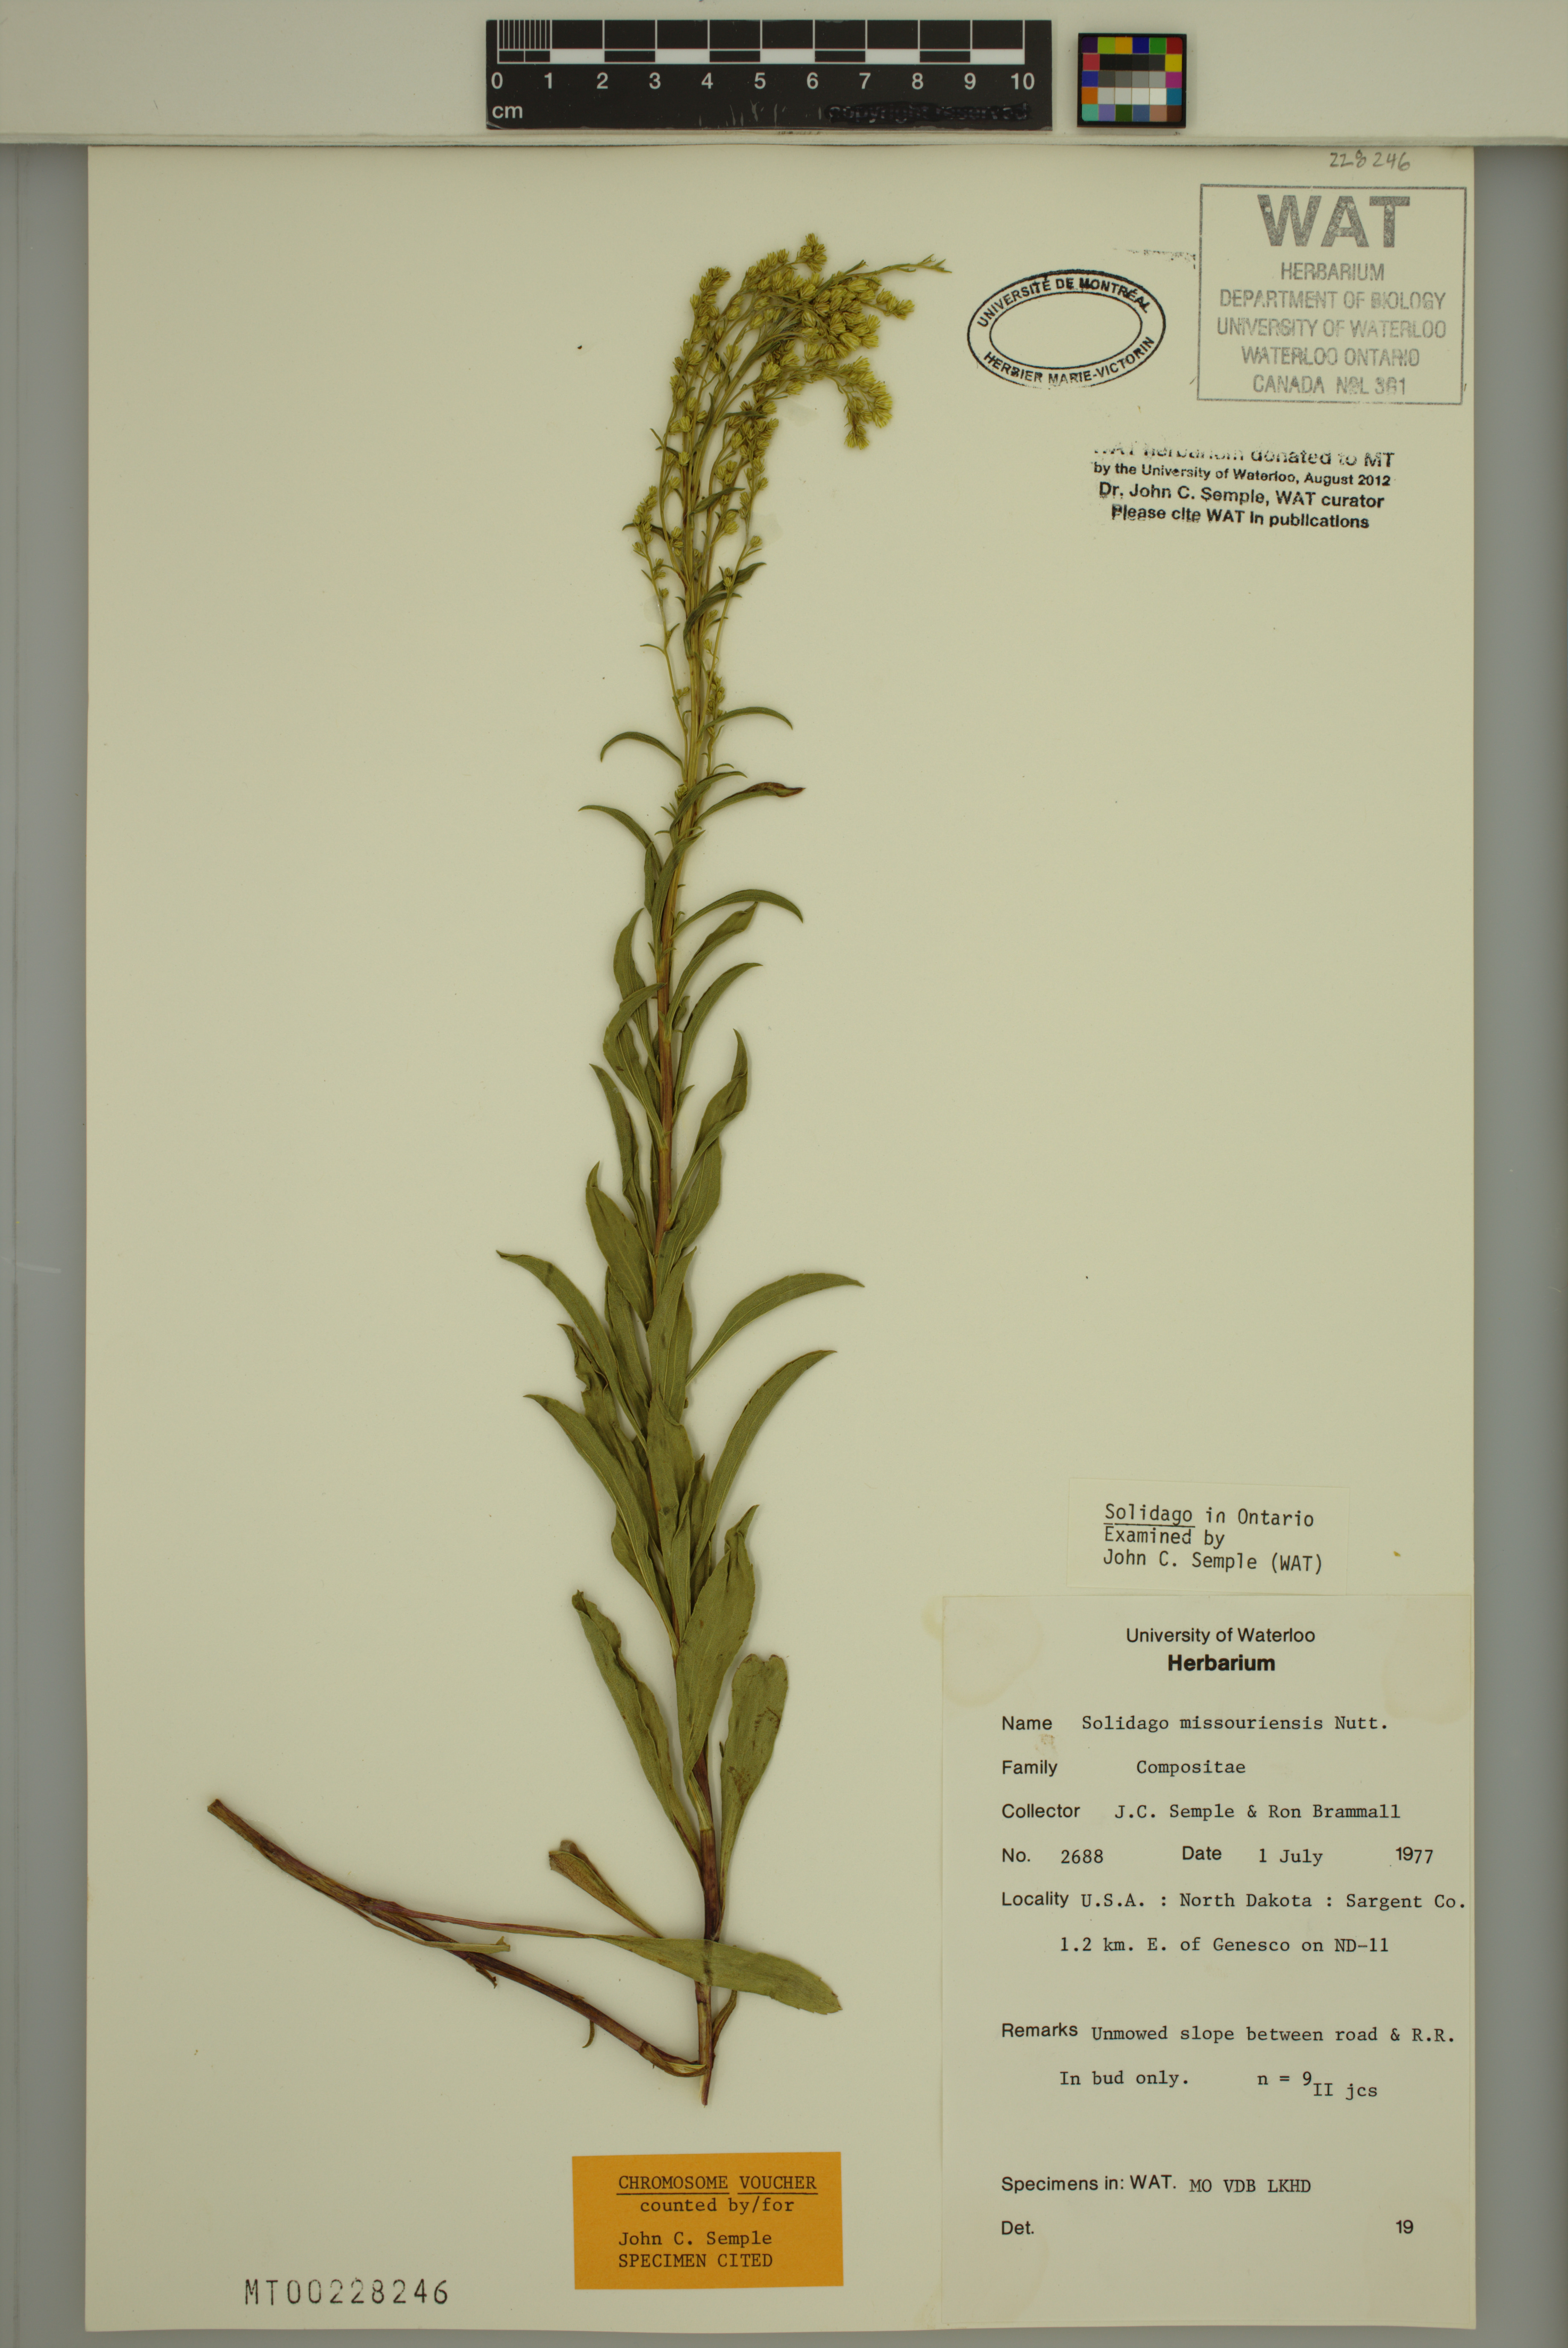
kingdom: Plantae
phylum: Tracheophyta
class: Magnoliopsida
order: Asterales
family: Asteraceae
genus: Solidago
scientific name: Solidago missouriensis
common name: Prairie goldenrod
